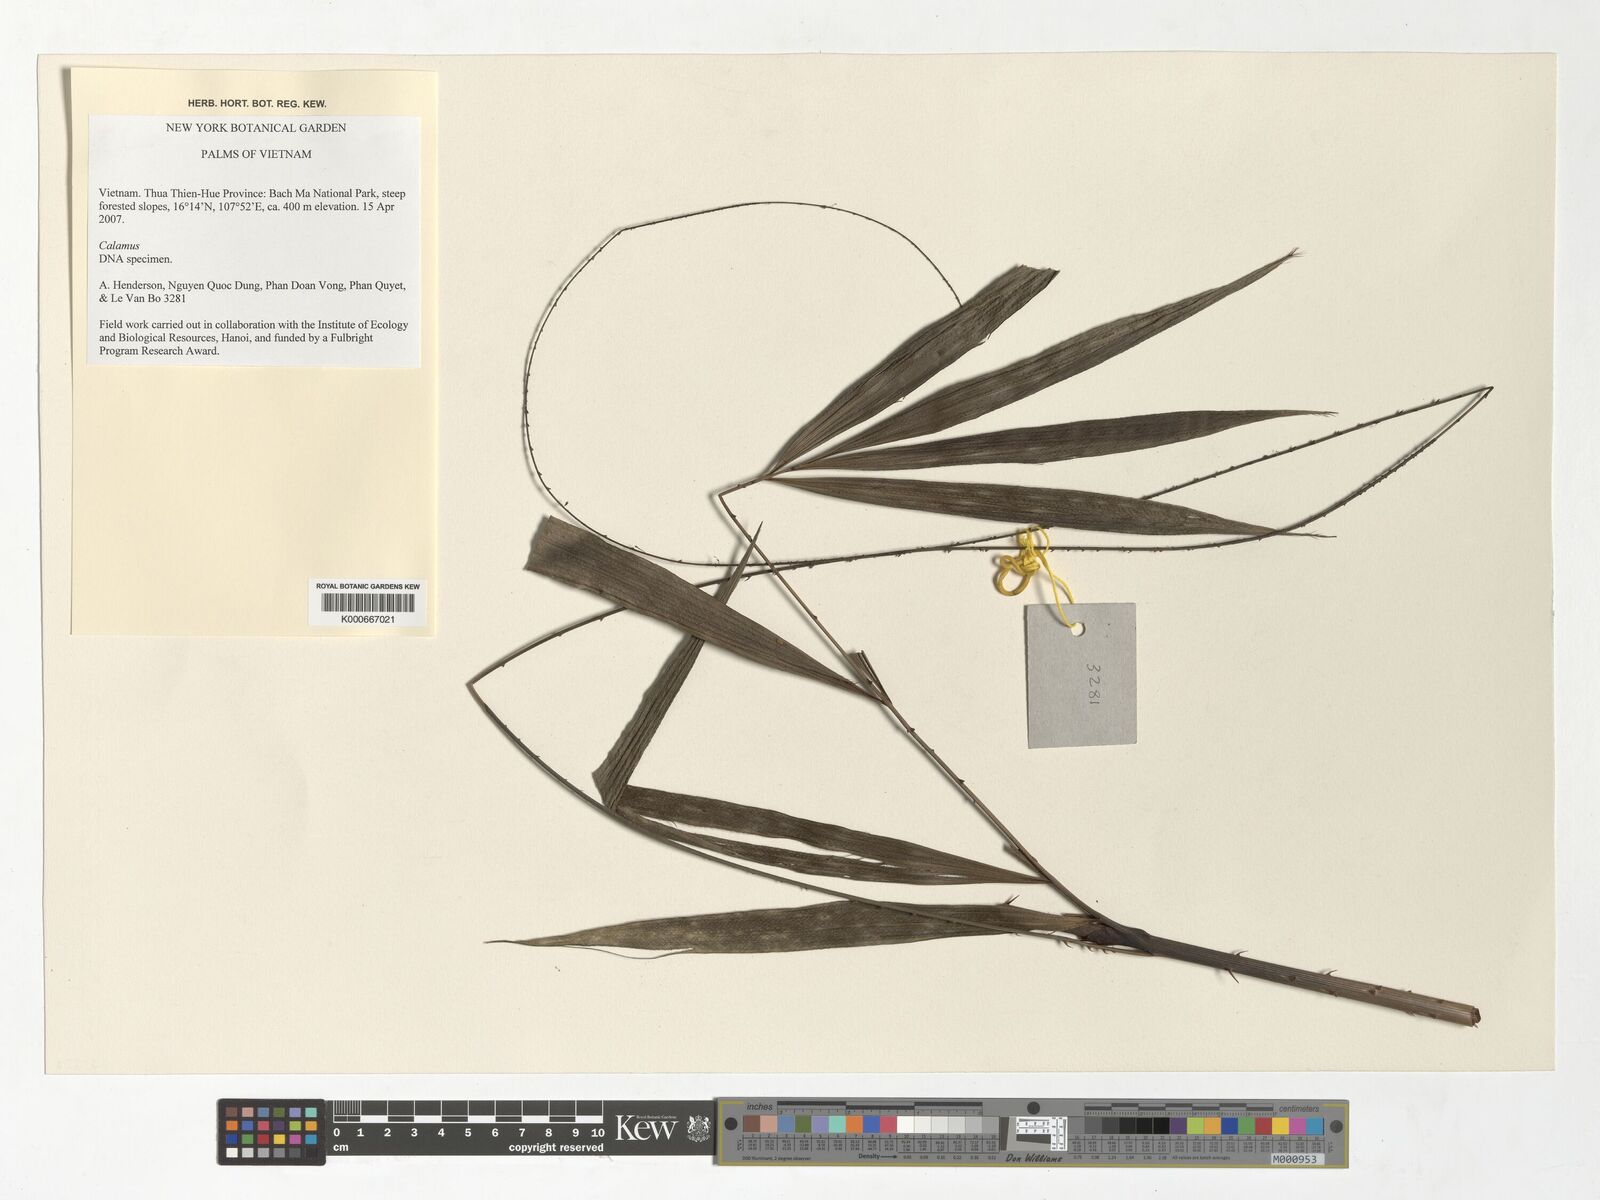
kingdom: Plantae
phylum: Tracheophyta
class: Liliopsida
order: Arecales
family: Arecaceae
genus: Calamus
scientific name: Calamus
